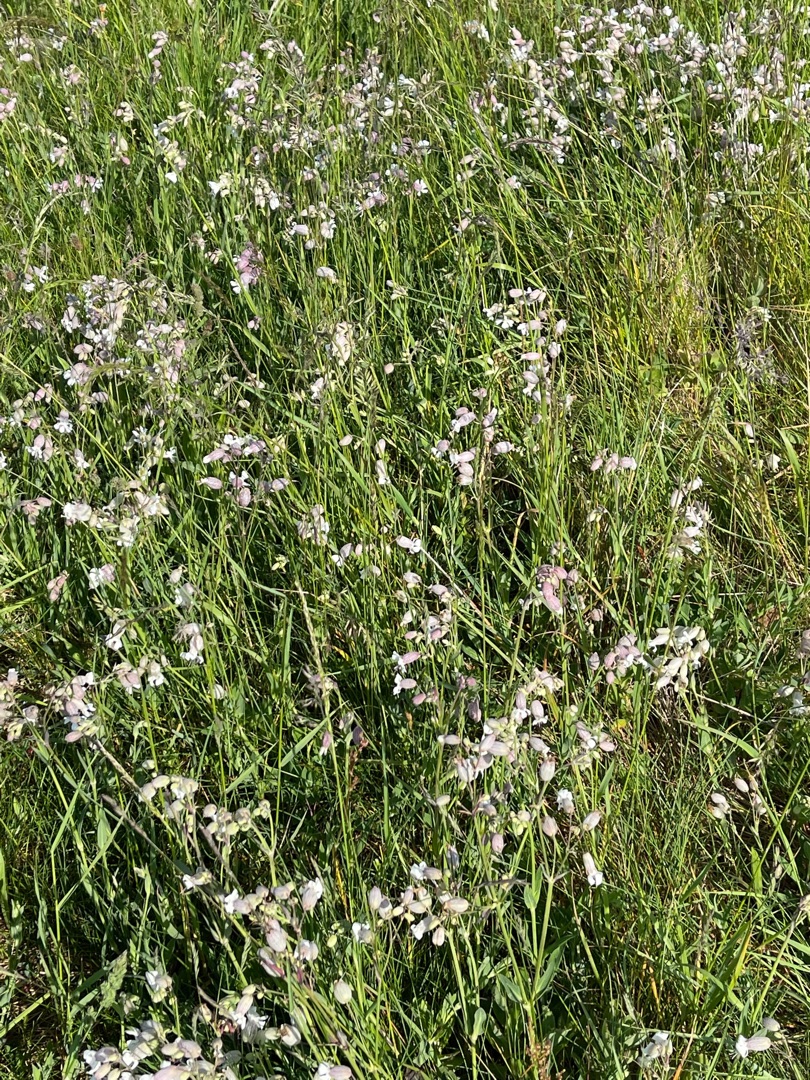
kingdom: Plantae
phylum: Tracheophyta
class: Magnoliopsida
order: Caryophyllales
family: Caryophyllaceae
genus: Silene
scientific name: Silene vulgaris
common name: Blæresmælde
